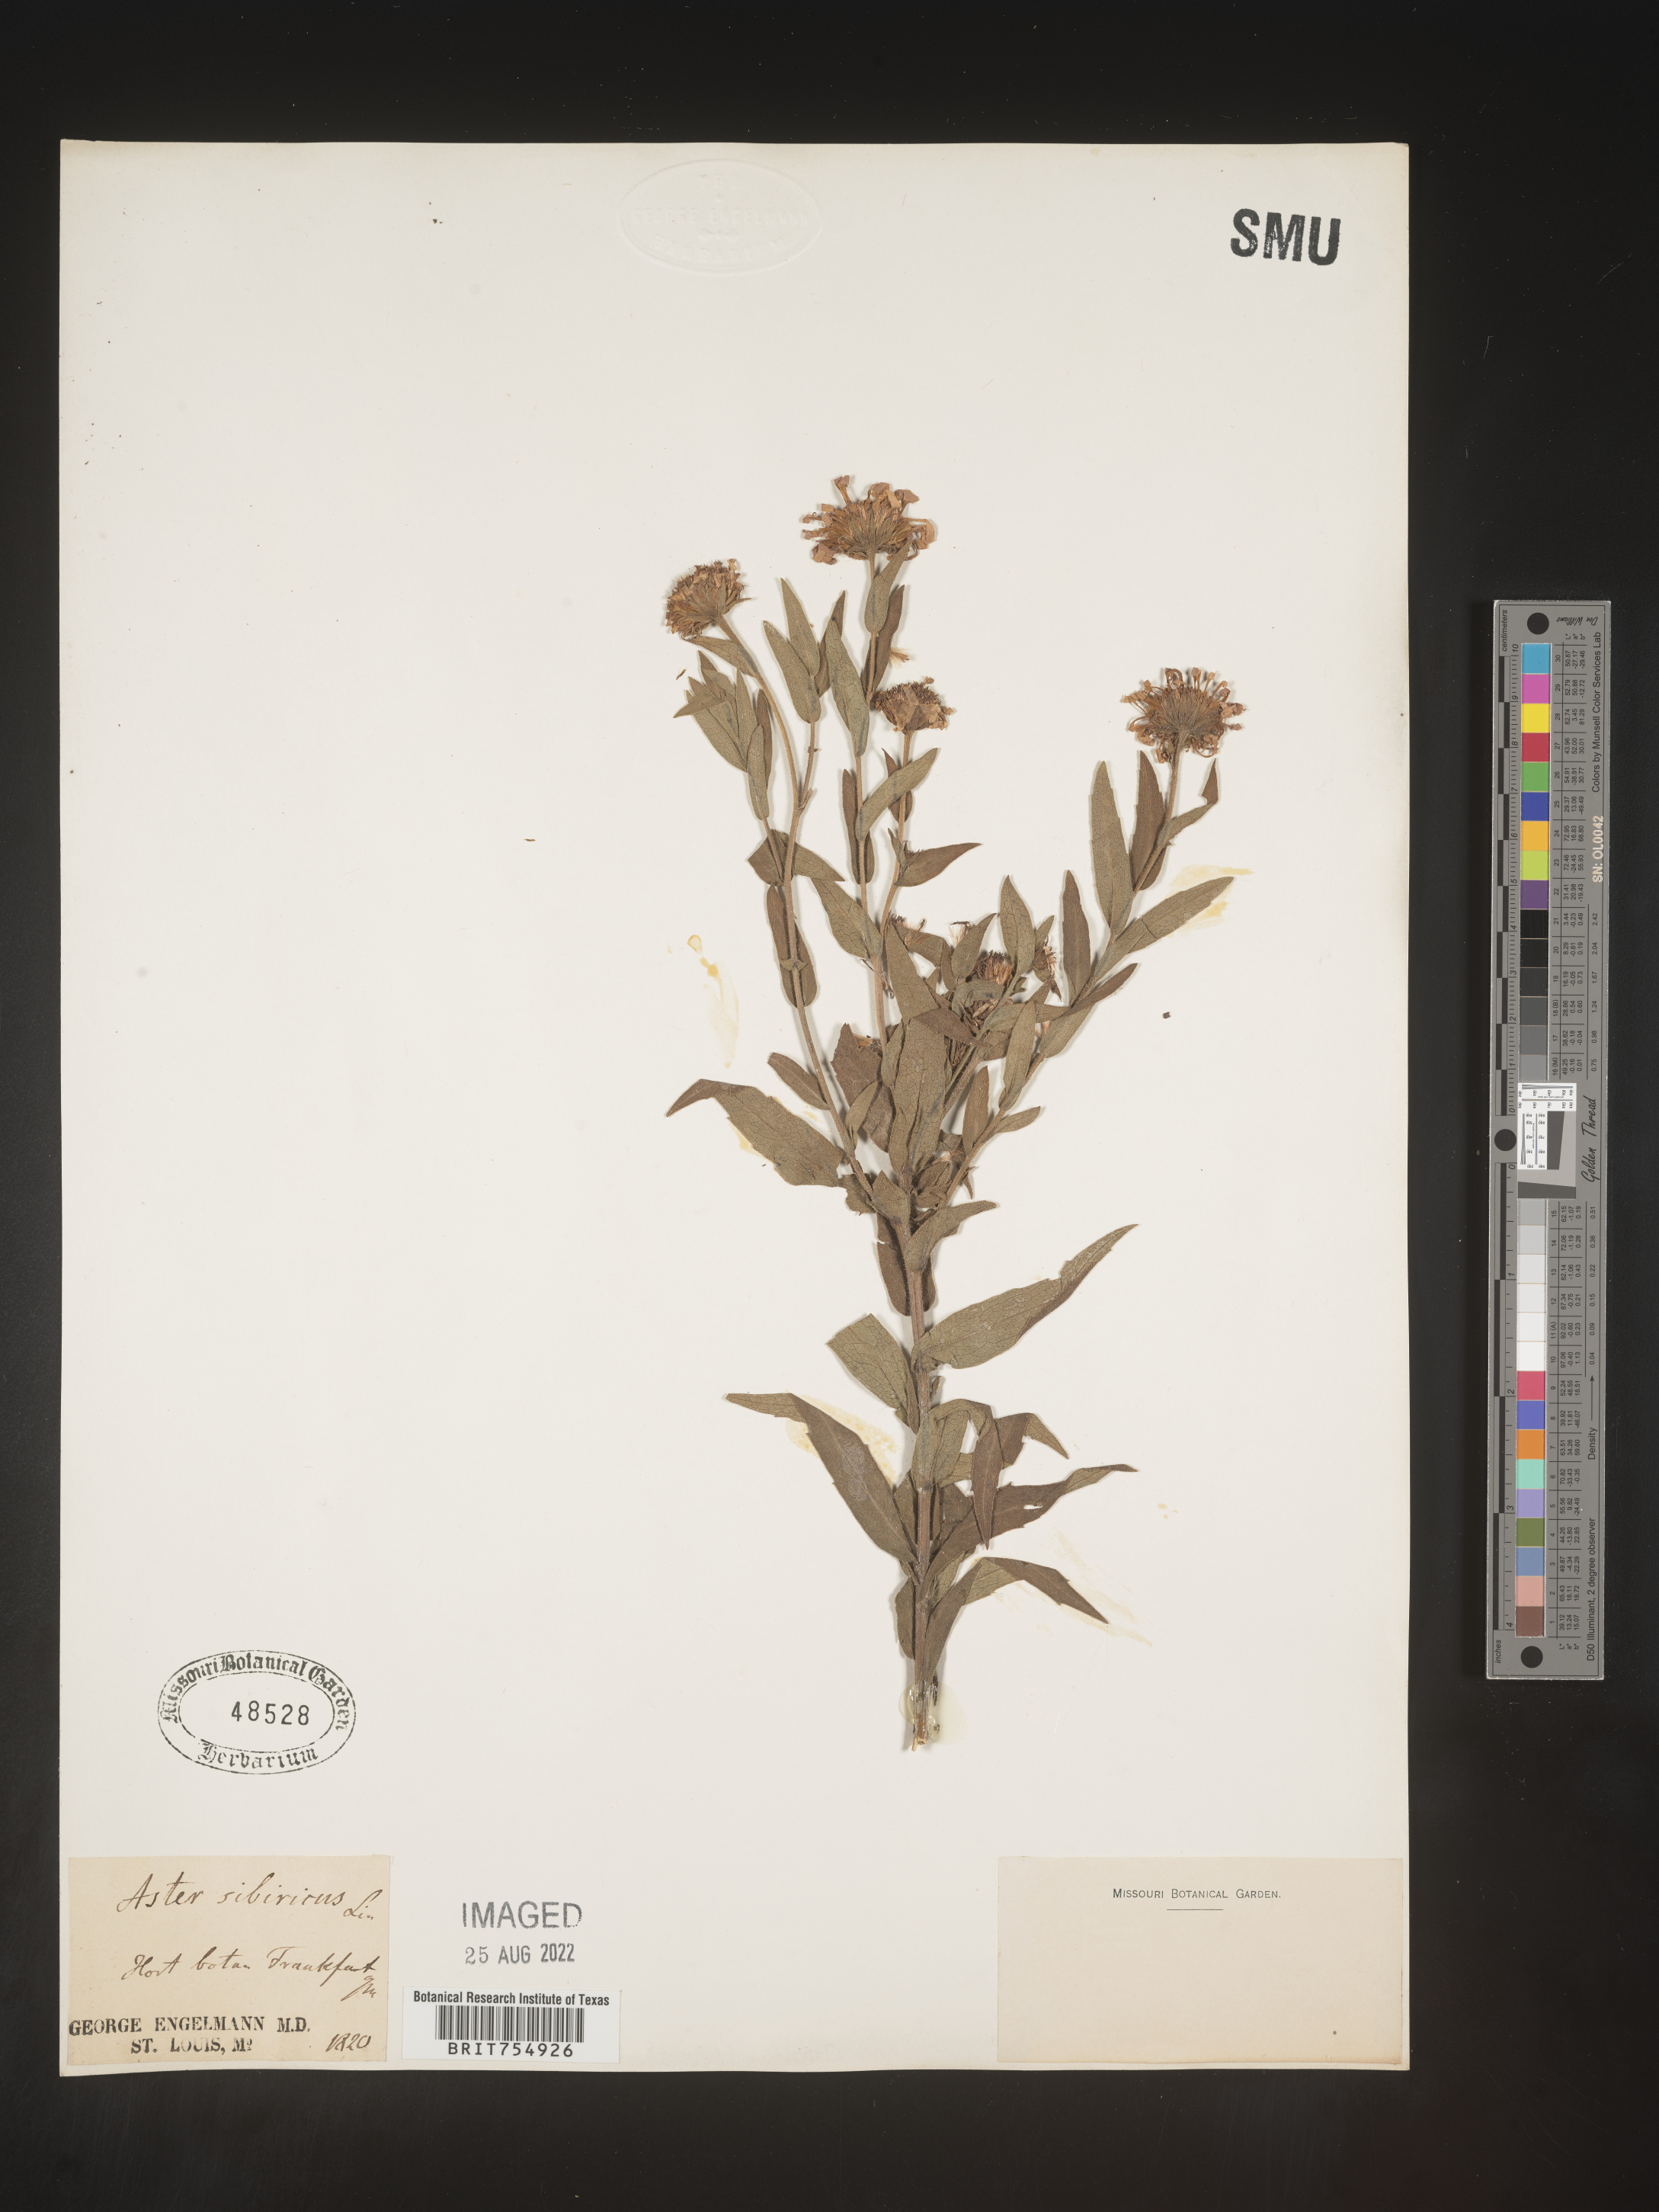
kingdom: Plantae
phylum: Tracheophyta
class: Magnoliopsida
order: Asterales
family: Asteraceae
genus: Symphyotrichum
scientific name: Symphyotrichum
